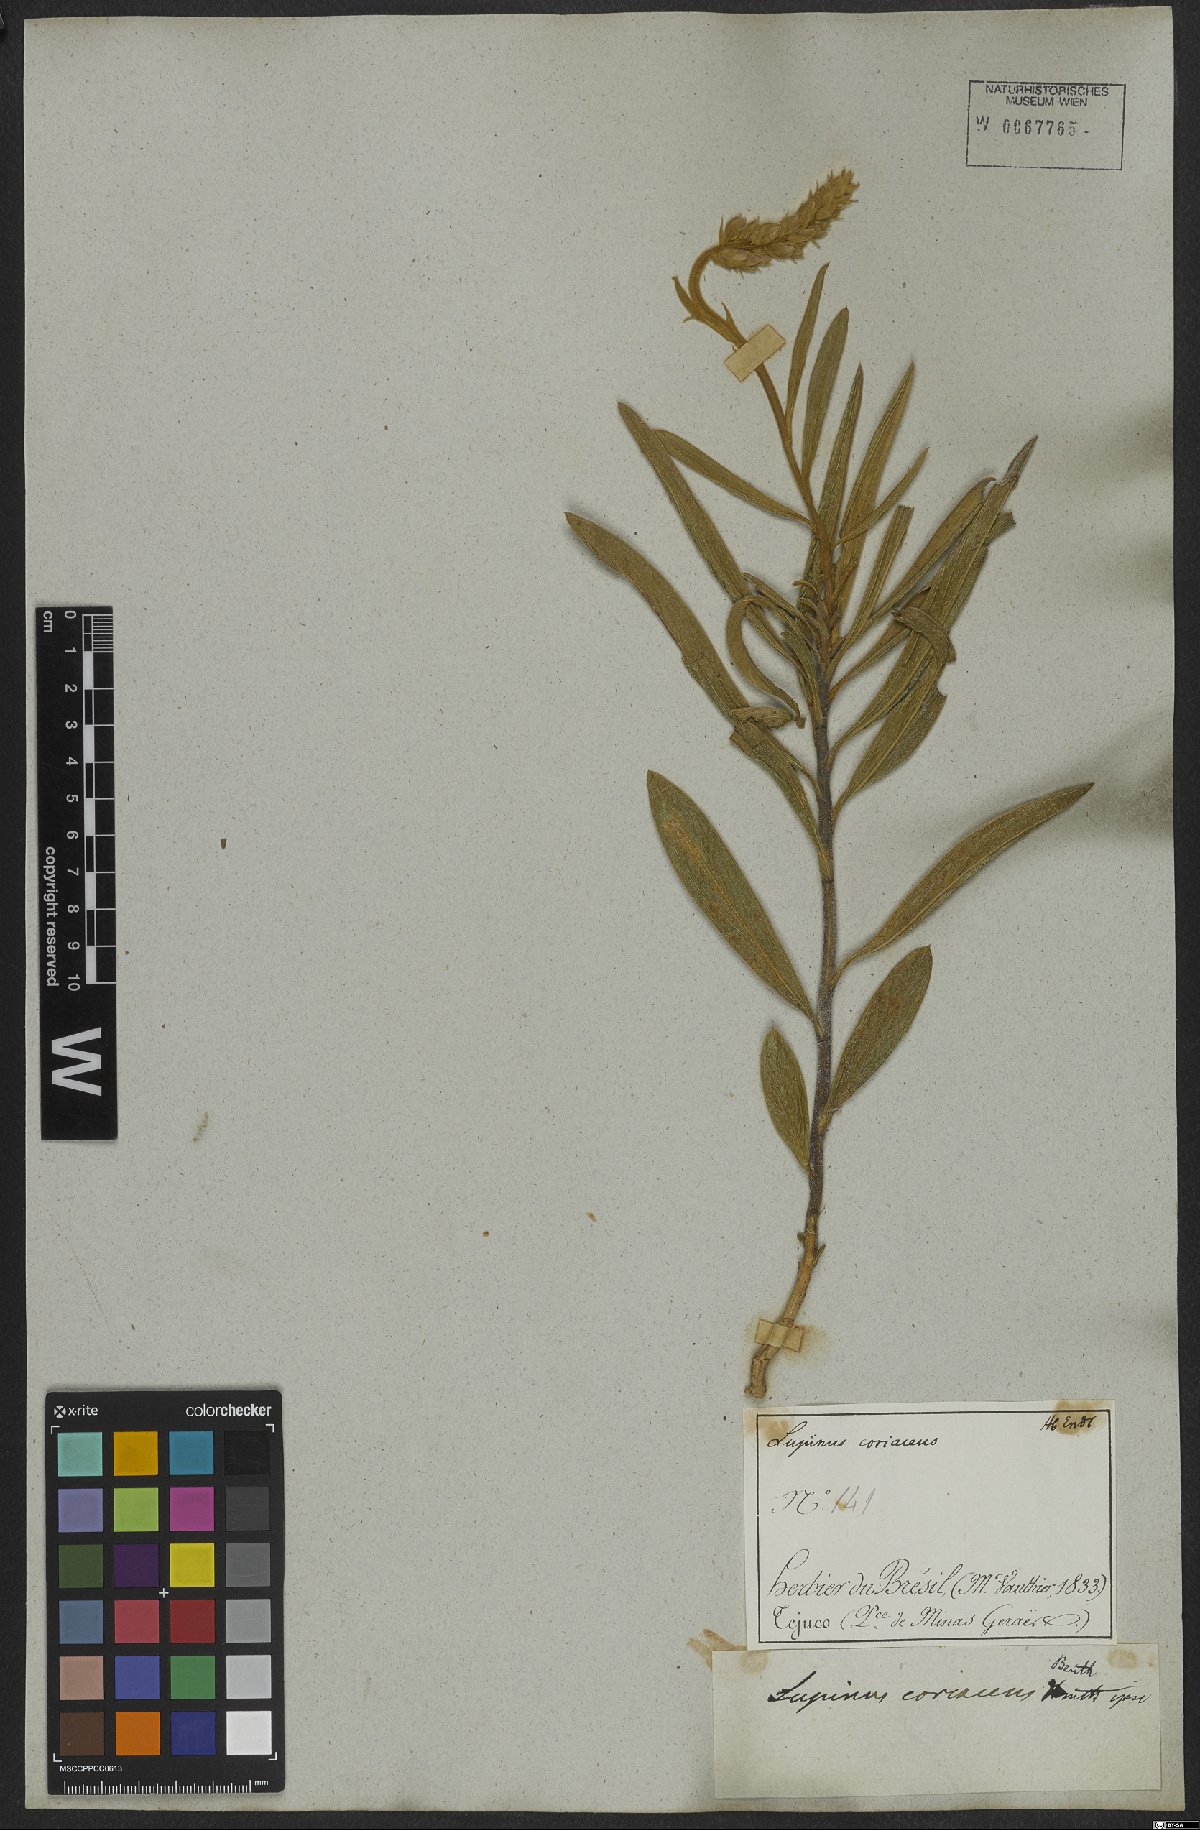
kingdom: Plantae
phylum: Tracheophyta
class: Magnoliopsida
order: Fabales
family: Fabaceae
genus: Lupinus
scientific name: Lupinus coriaceus
